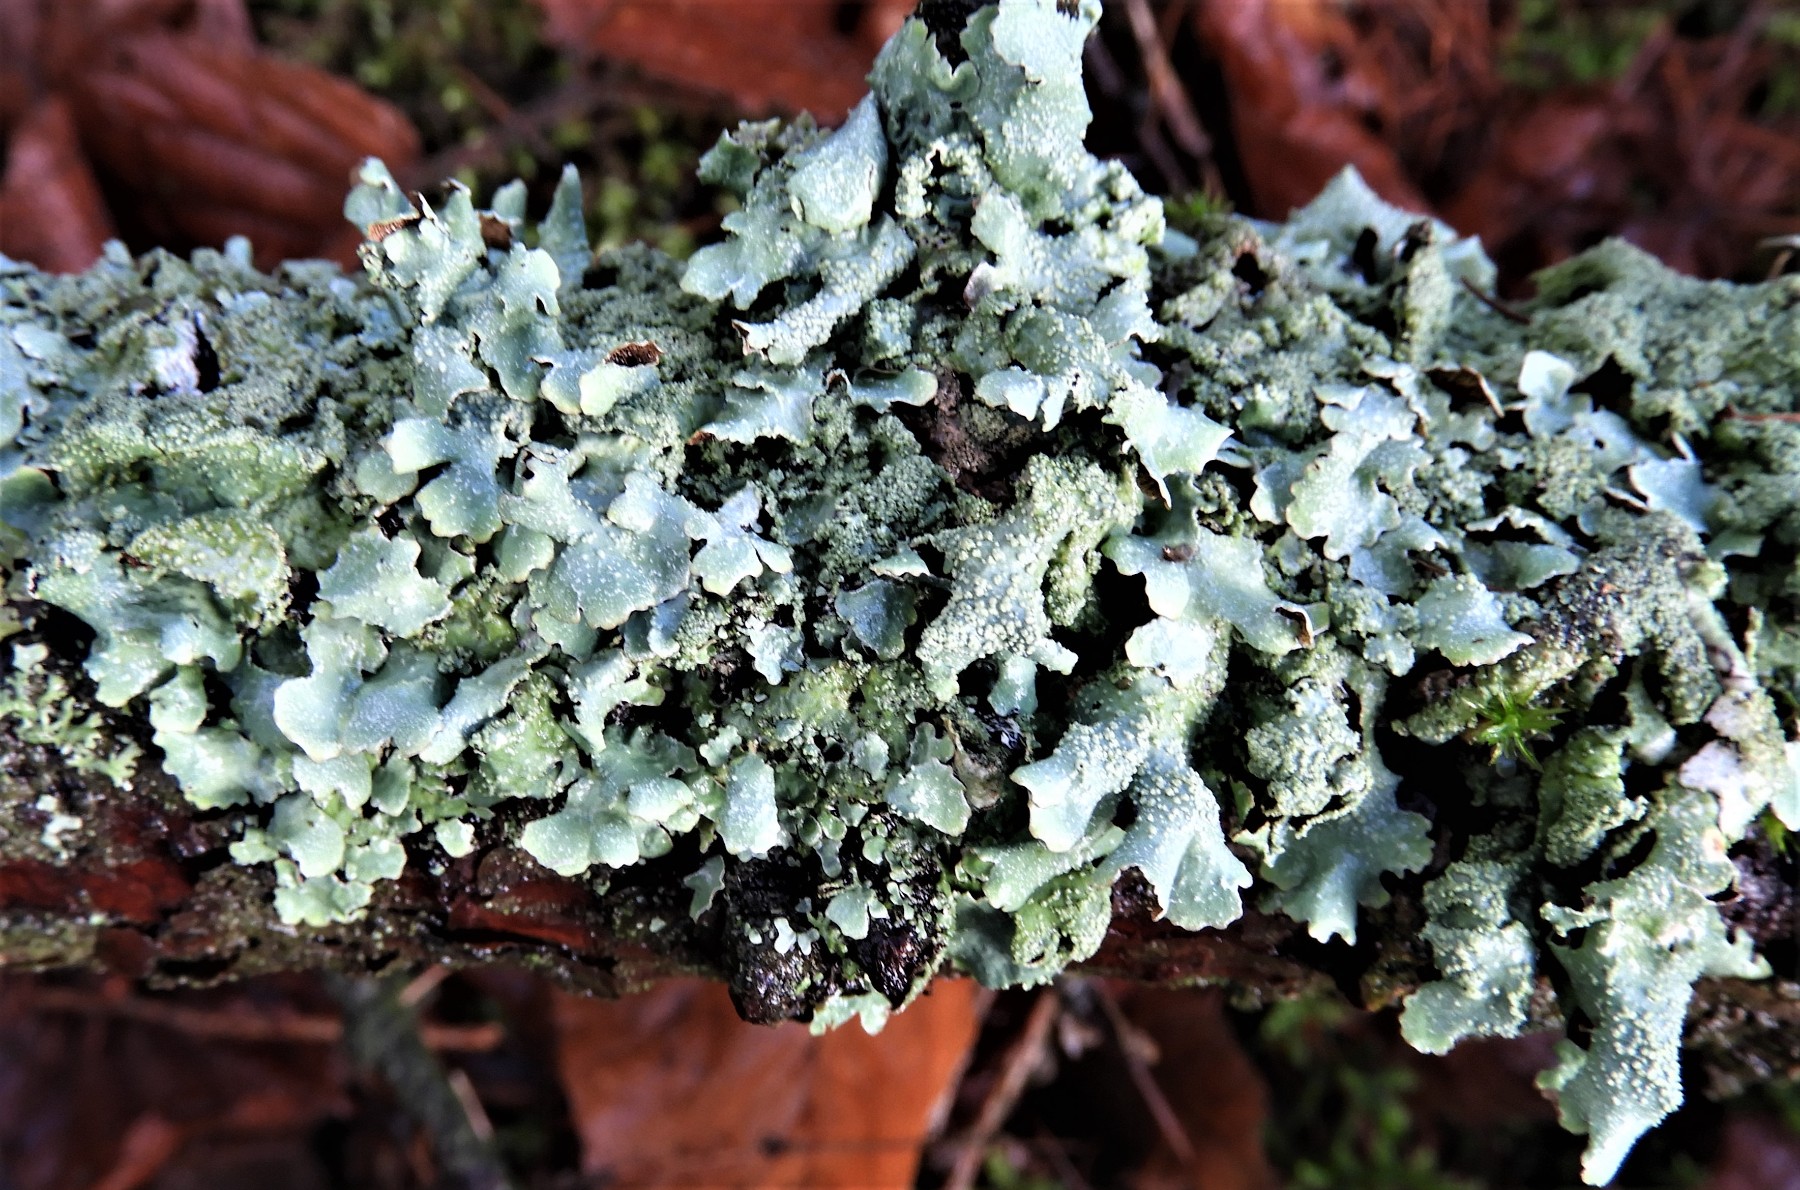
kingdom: Fungi
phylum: Ascomycota
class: Lecanoromycetes
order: Lecanorales
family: Parmeliaceae
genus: Parmelia
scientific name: Parmelia sulcata
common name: rynket skållav
